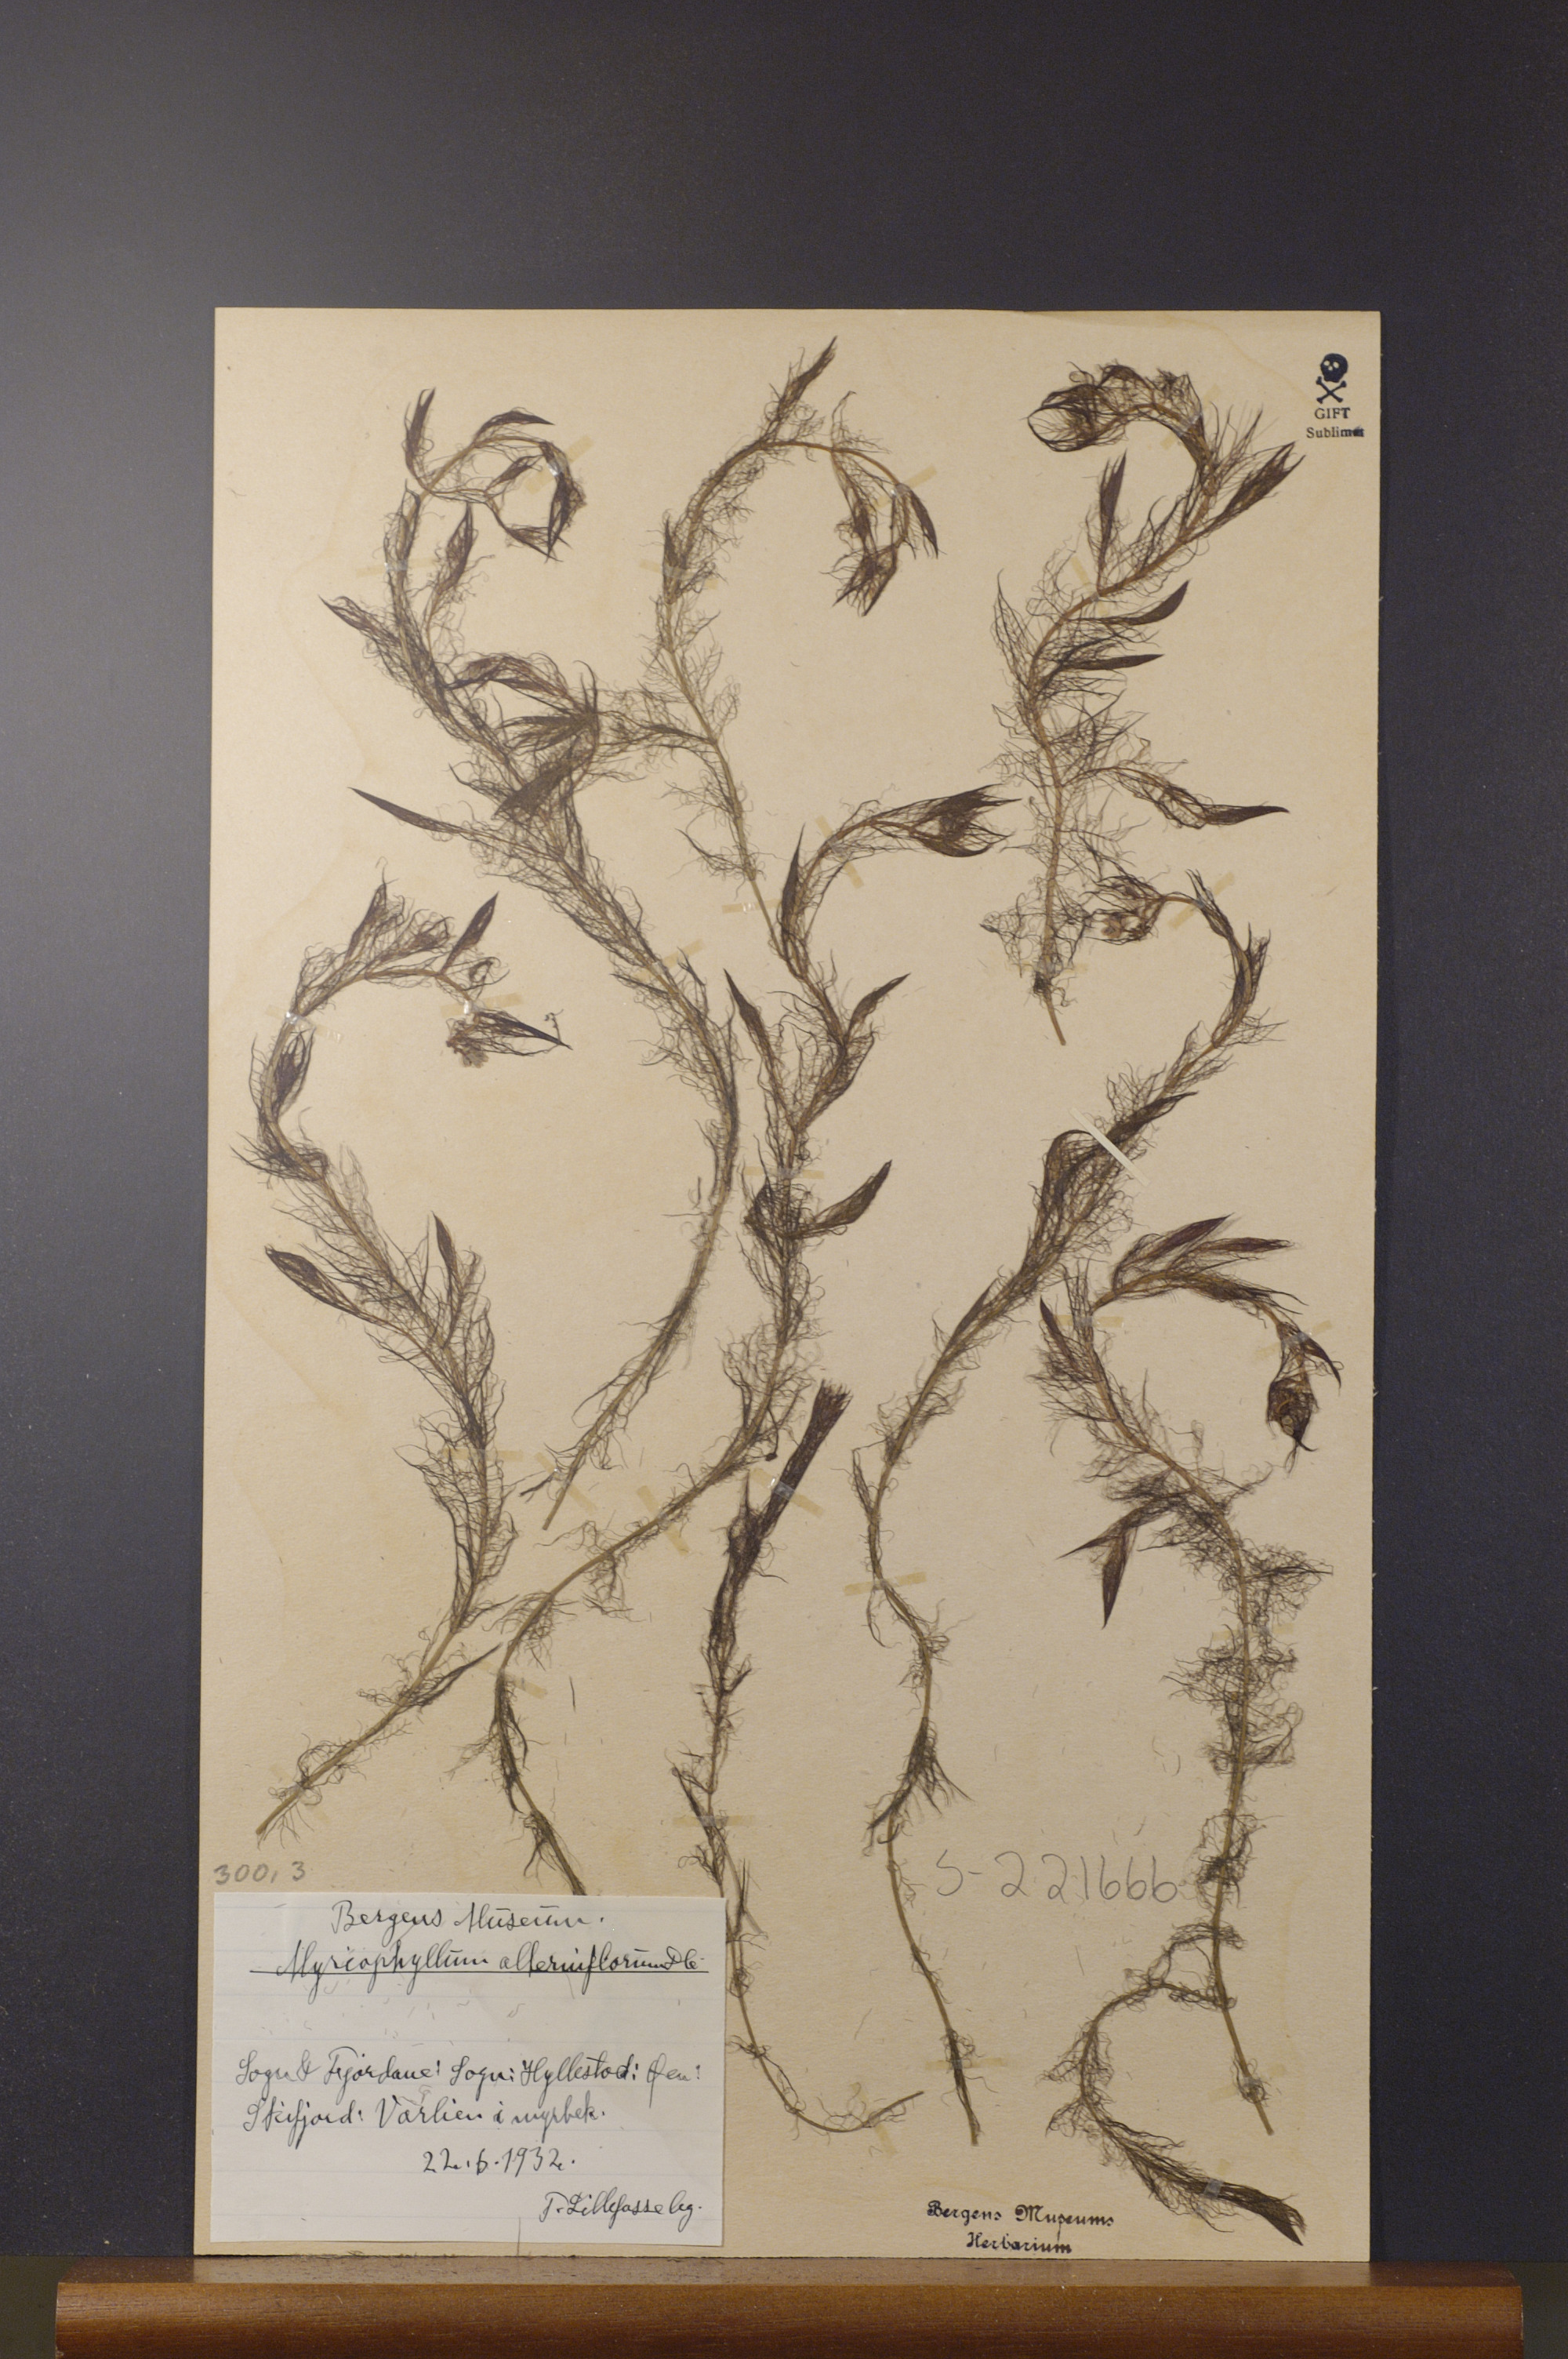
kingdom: Plantae
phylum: Tracheophyta
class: Magnoliopsida
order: Saxifragales
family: Haloragaceae
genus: Myriophyllum
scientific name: Myriophyllum alterniflorum
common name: Alternate water-milfoil
